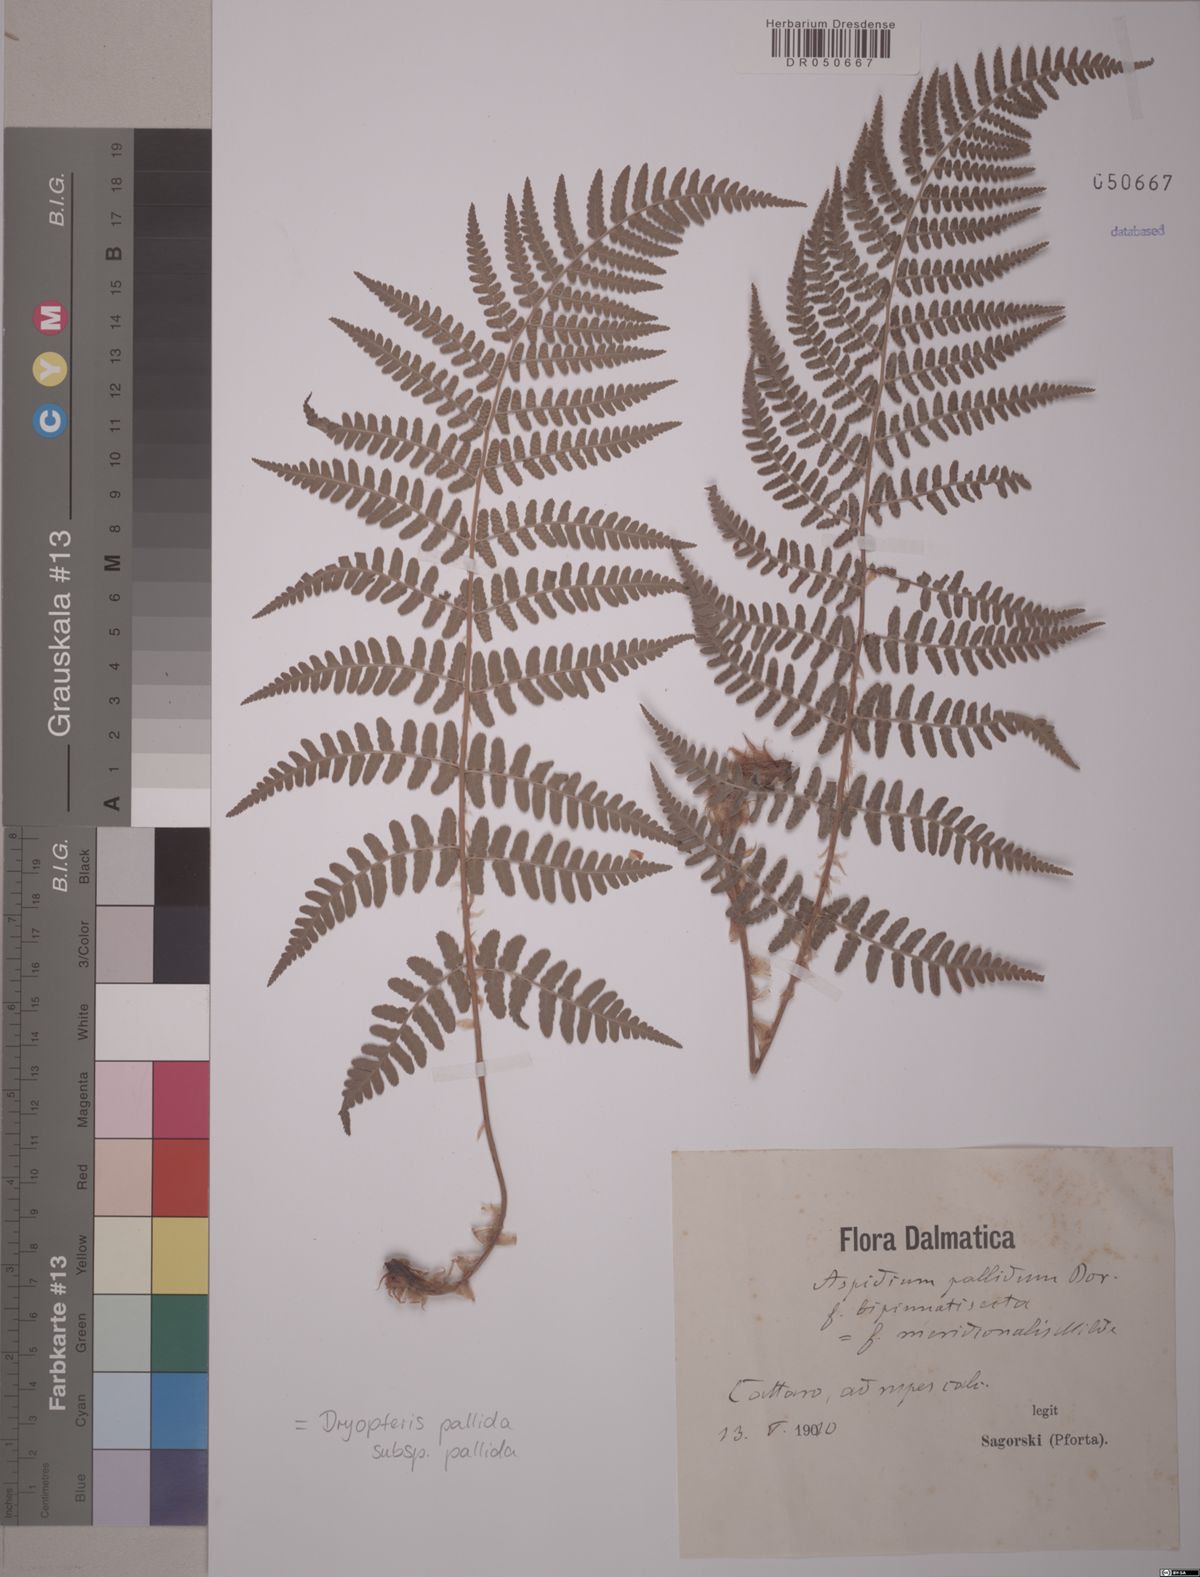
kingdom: Plantae
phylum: Tracheophyta
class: Polypodiopsida
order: Polypodiales
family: Dryopteridaceae
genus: Dryopteris
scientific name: Dryopteris pallida
